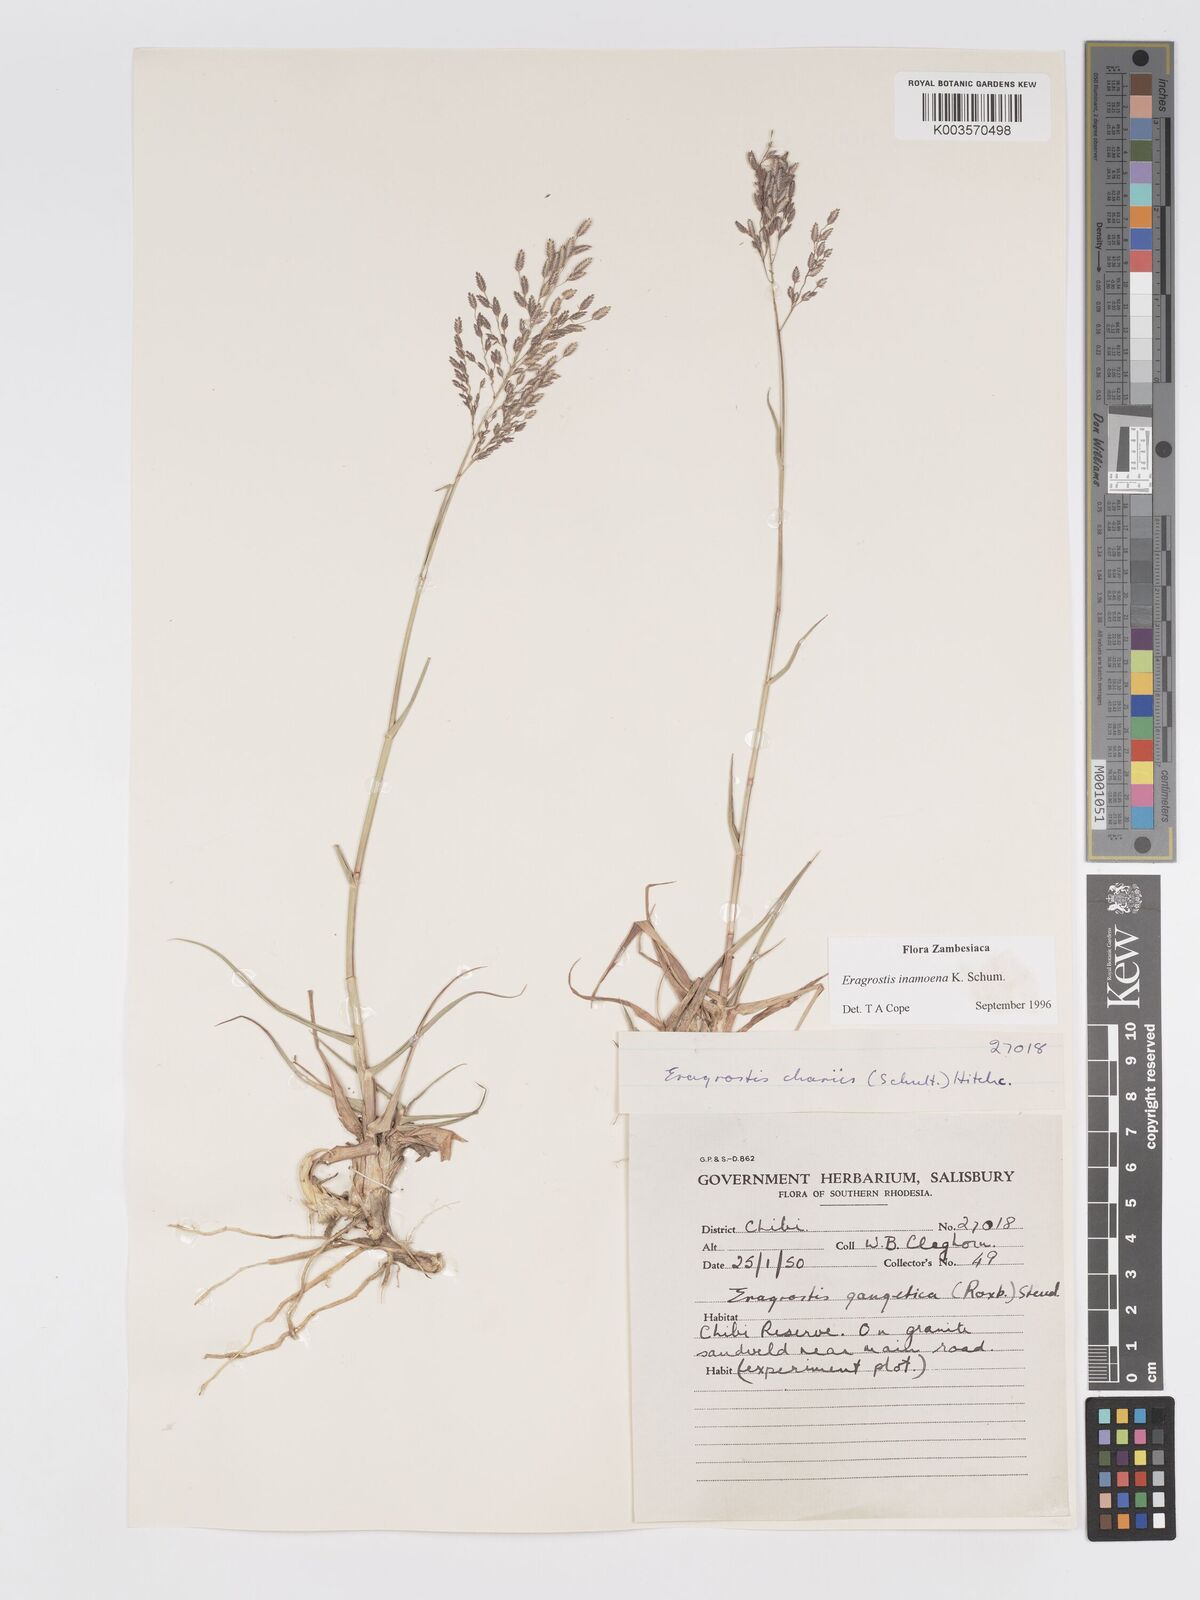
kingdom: Plantae
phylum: Tracheophyta
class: Liliopsida
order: Poales
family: Poaceae
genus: Eragrostis
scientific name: Eragrostis inamoena
